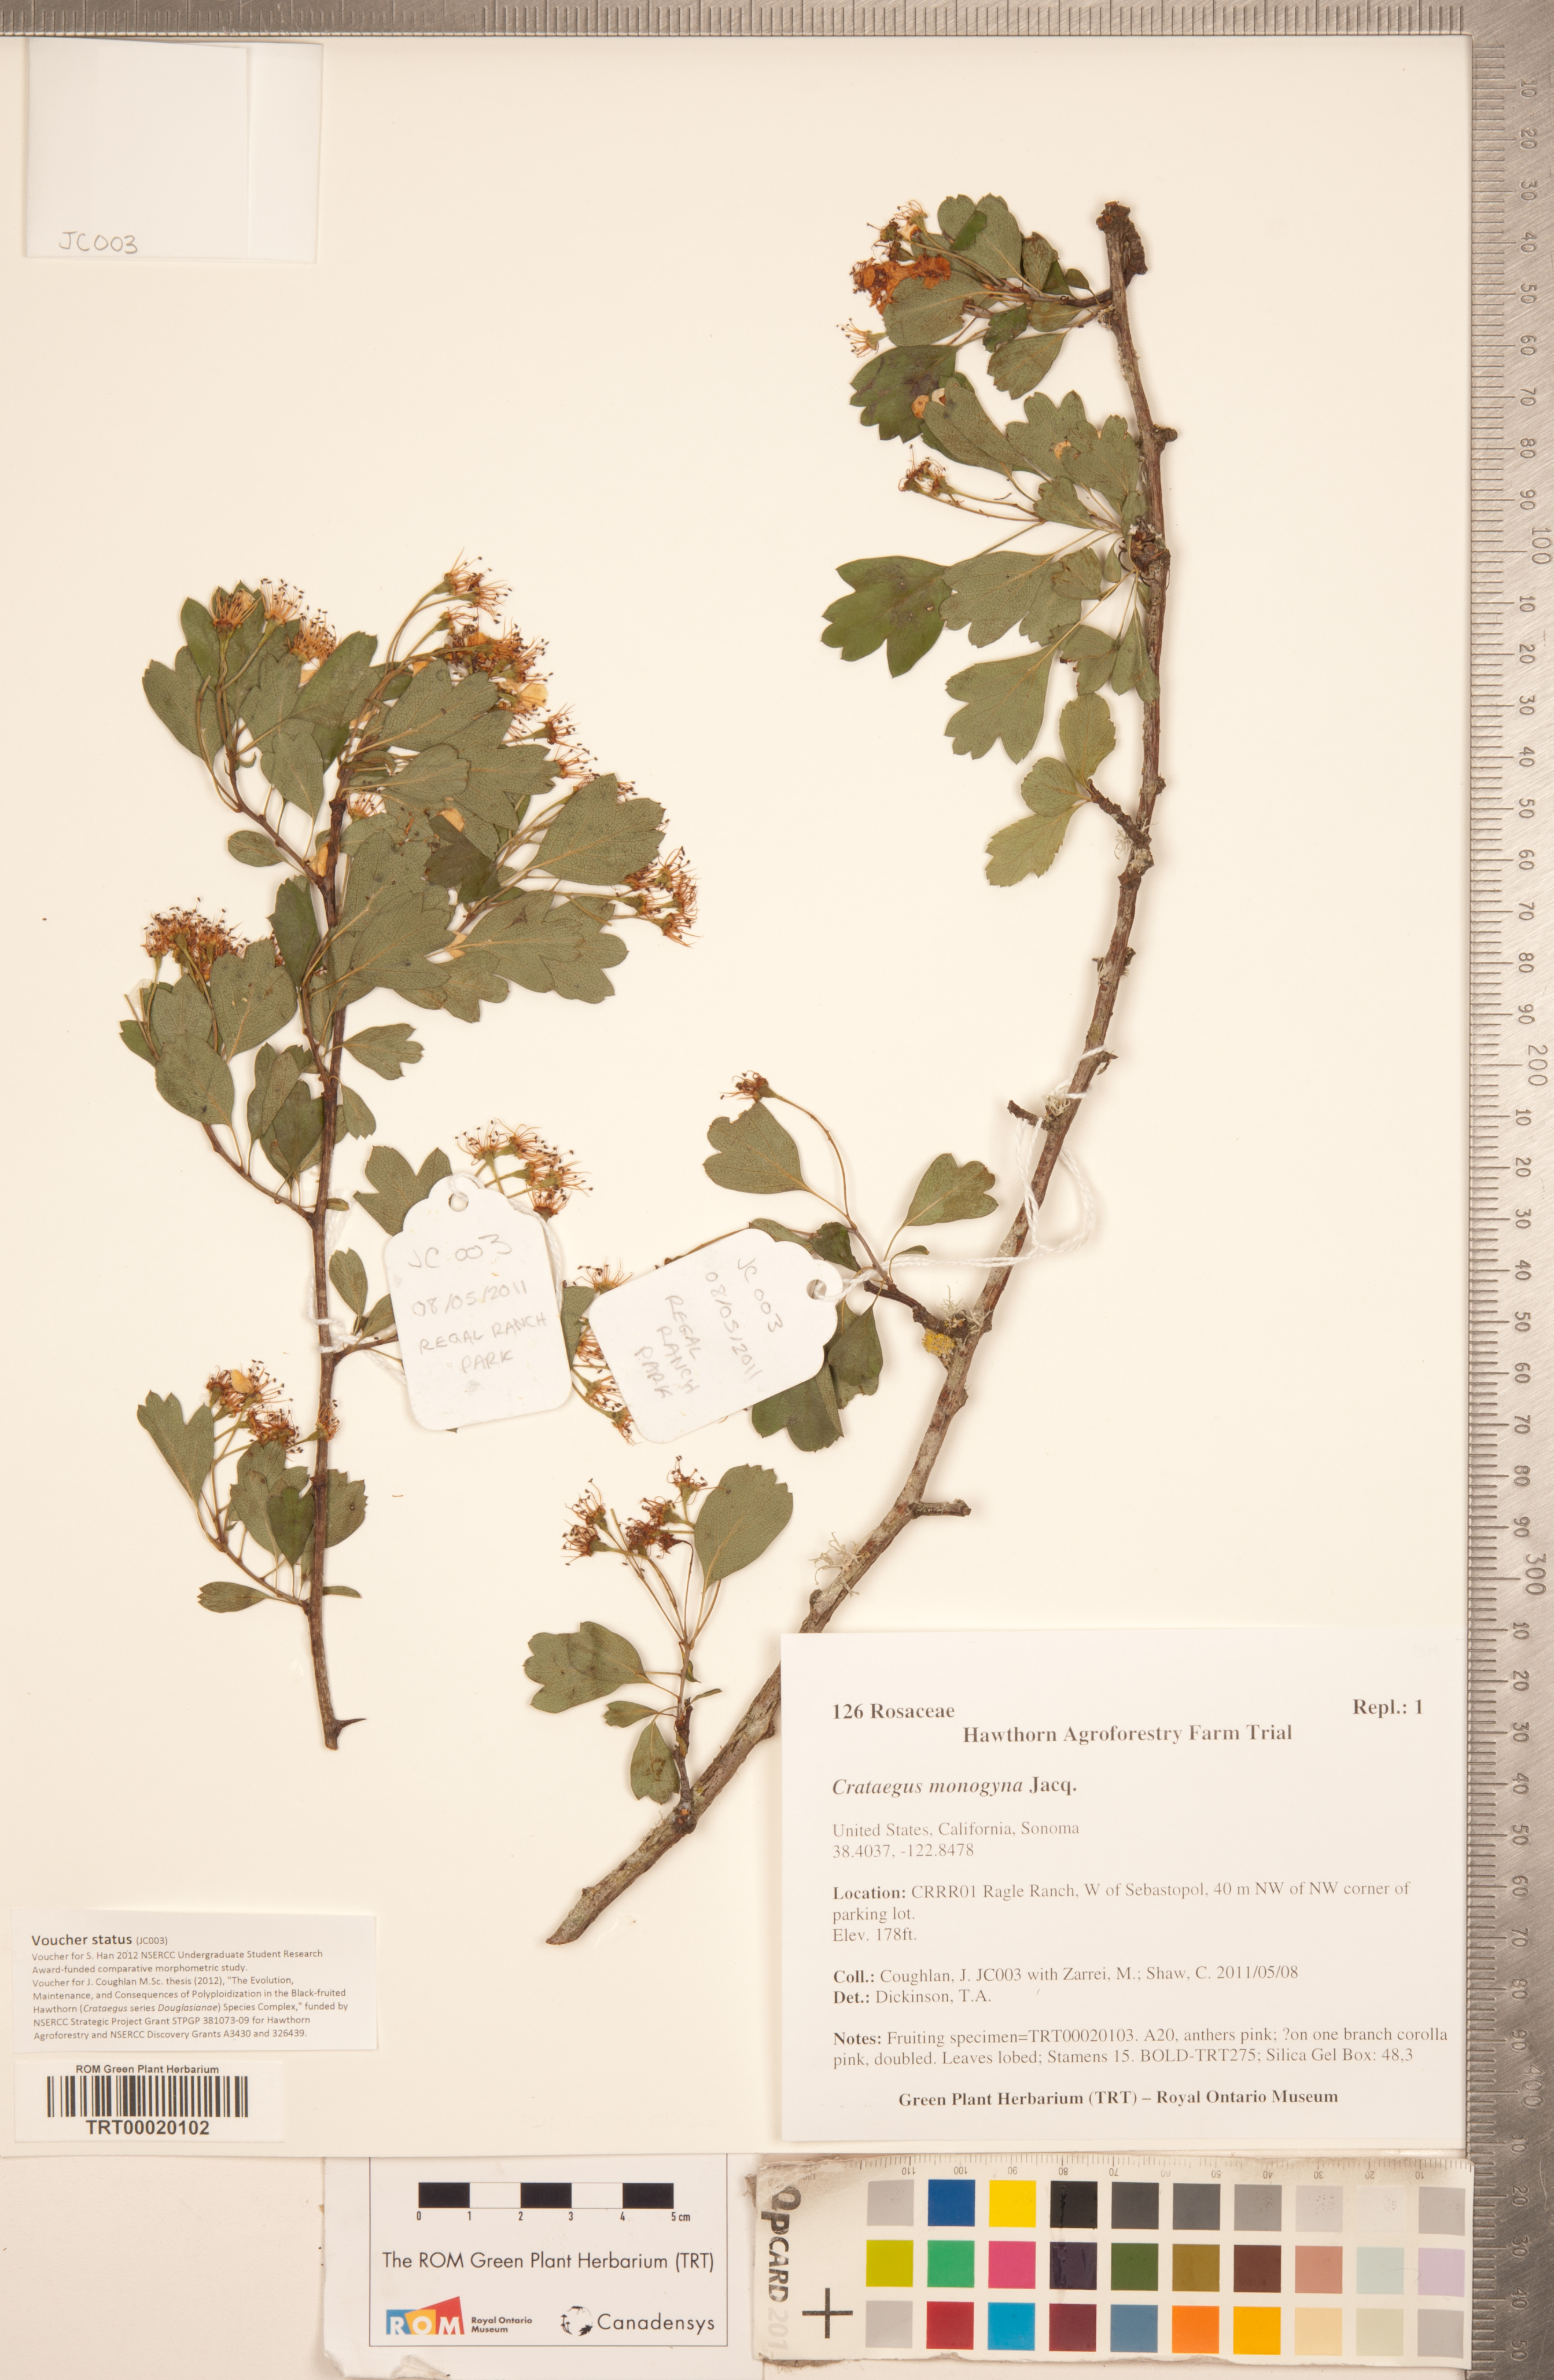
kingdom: Plantae
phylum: Tracheophyta
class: Magnoliopsida
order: Rosales
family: Rosaceae
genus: Crataegus
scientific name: Crataegus monogyna
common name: Hawthorn
